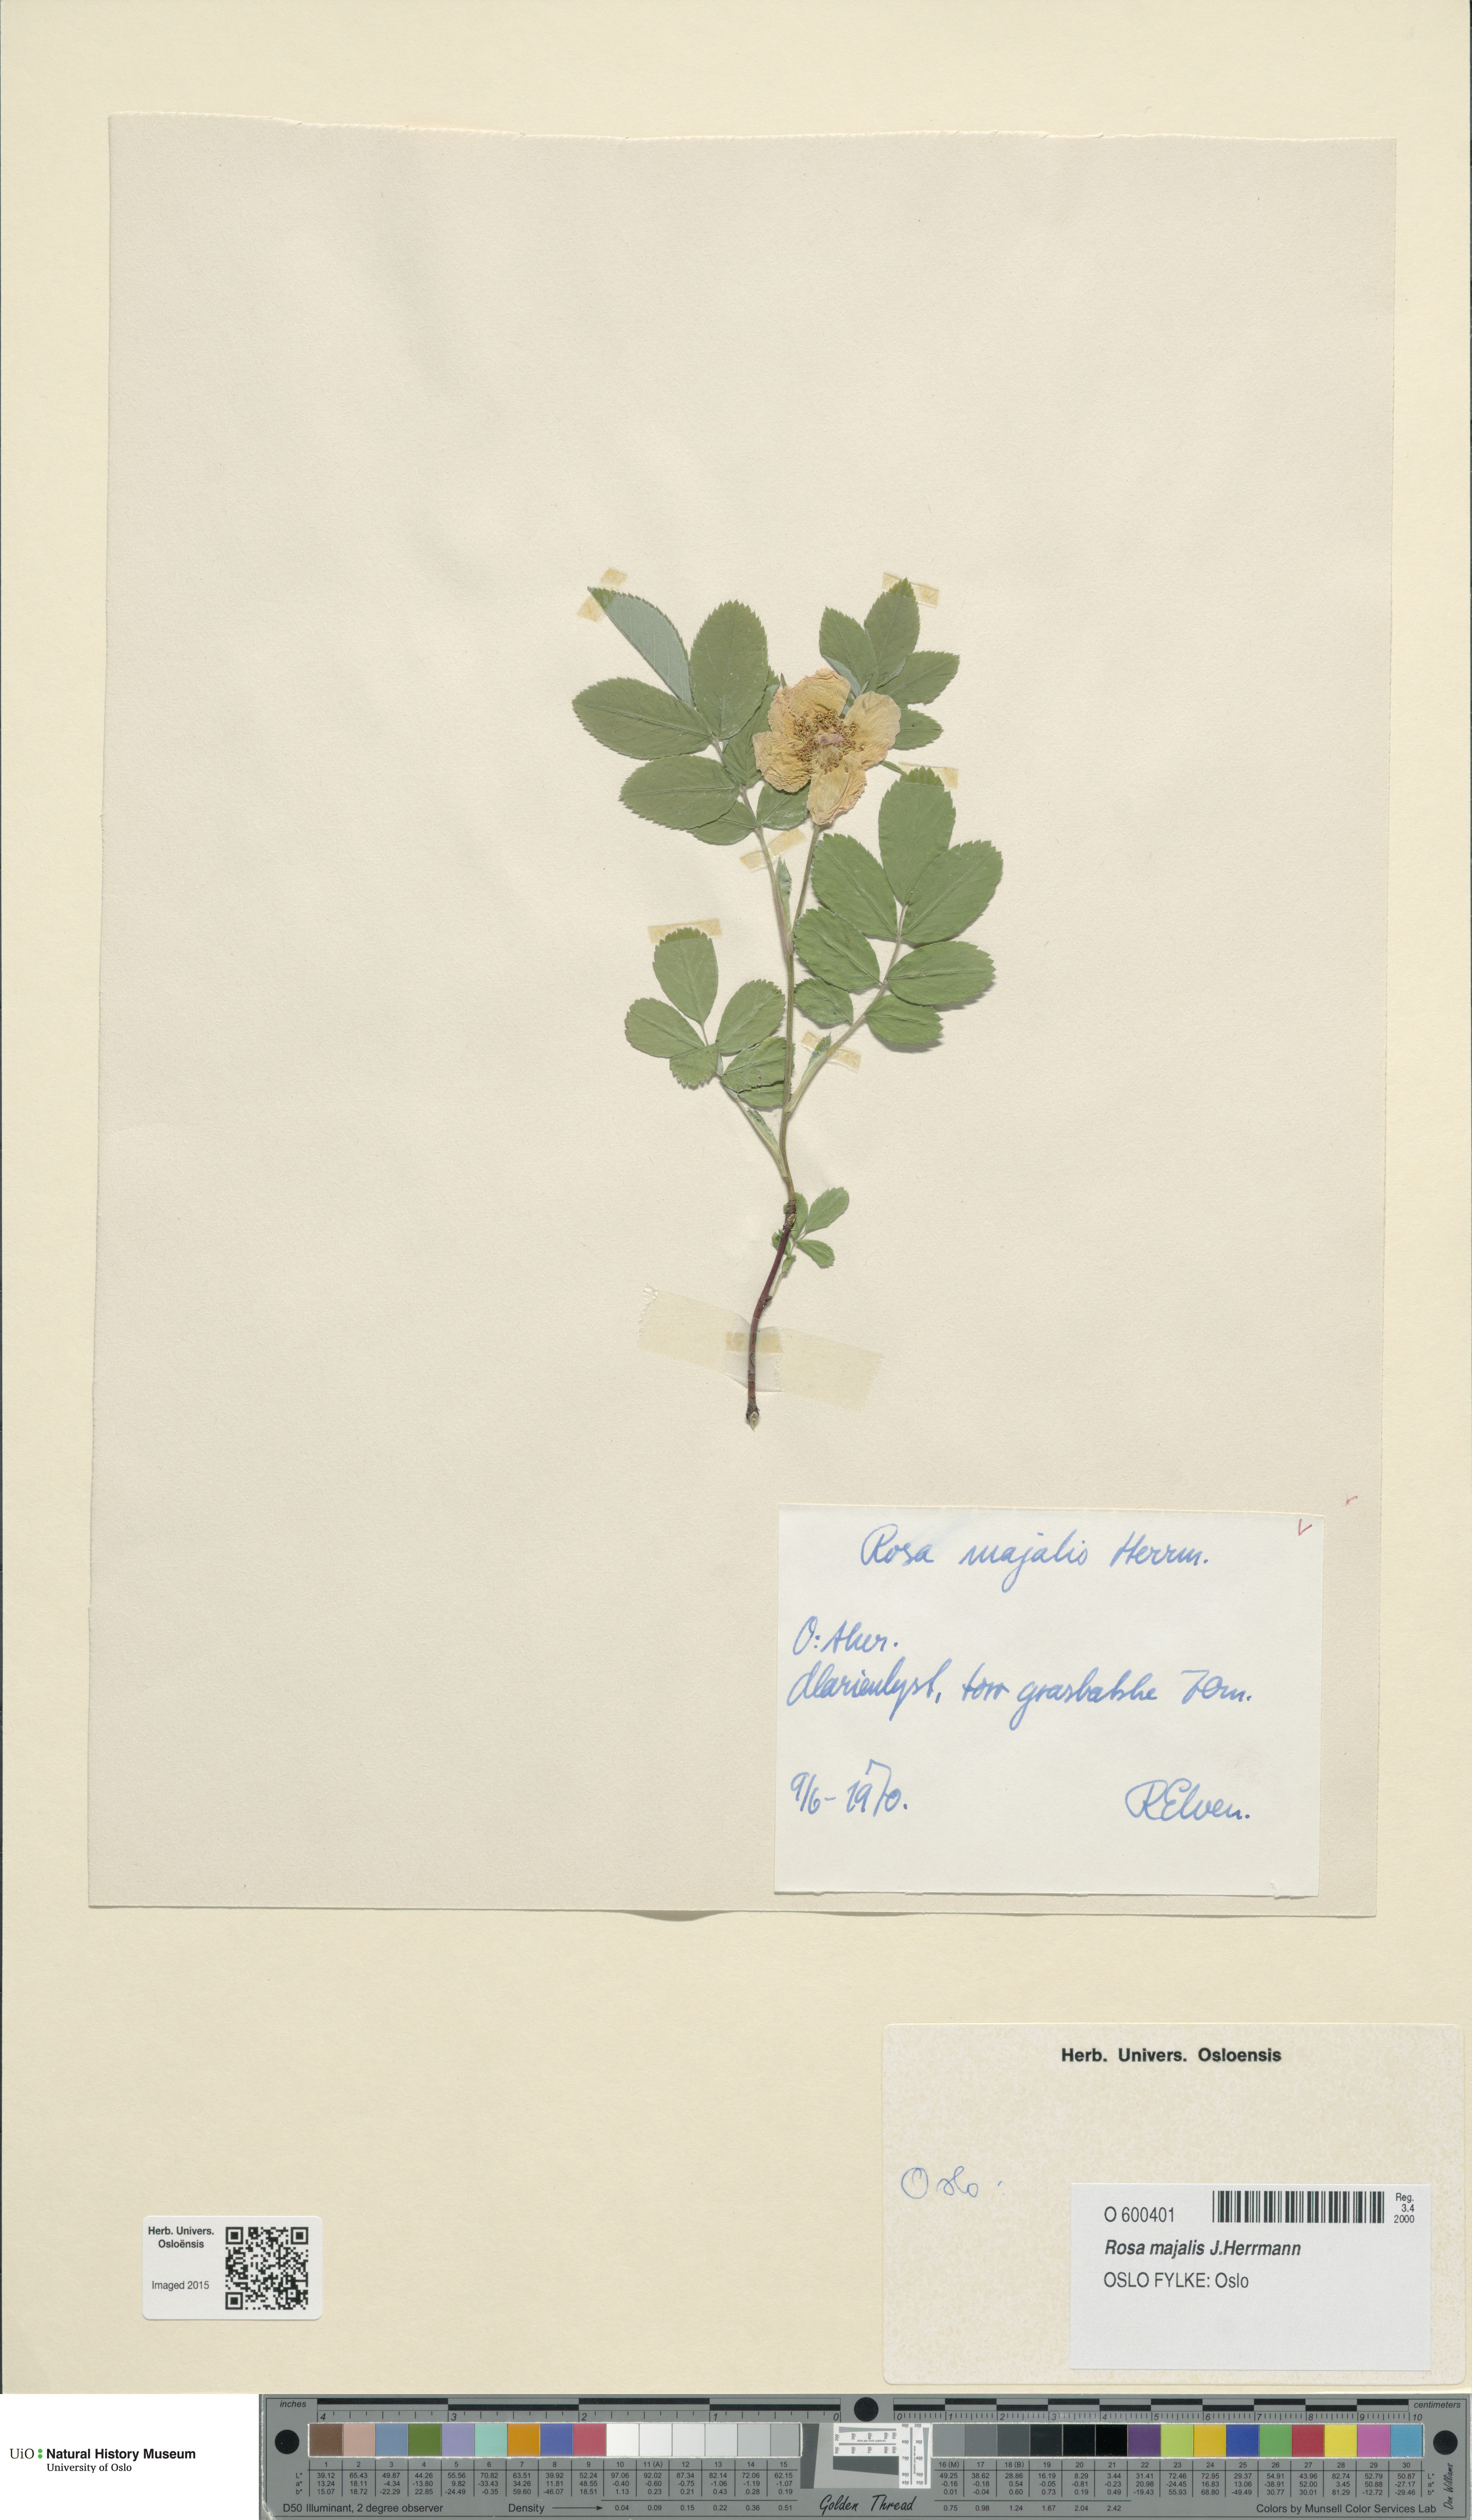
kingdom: Plantae
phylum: Tracheophyta
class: Magnoliopsida
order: Rosales
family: Rosaceae
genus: Rosa
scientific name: Rosa majalis
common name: Cinnamon rose
